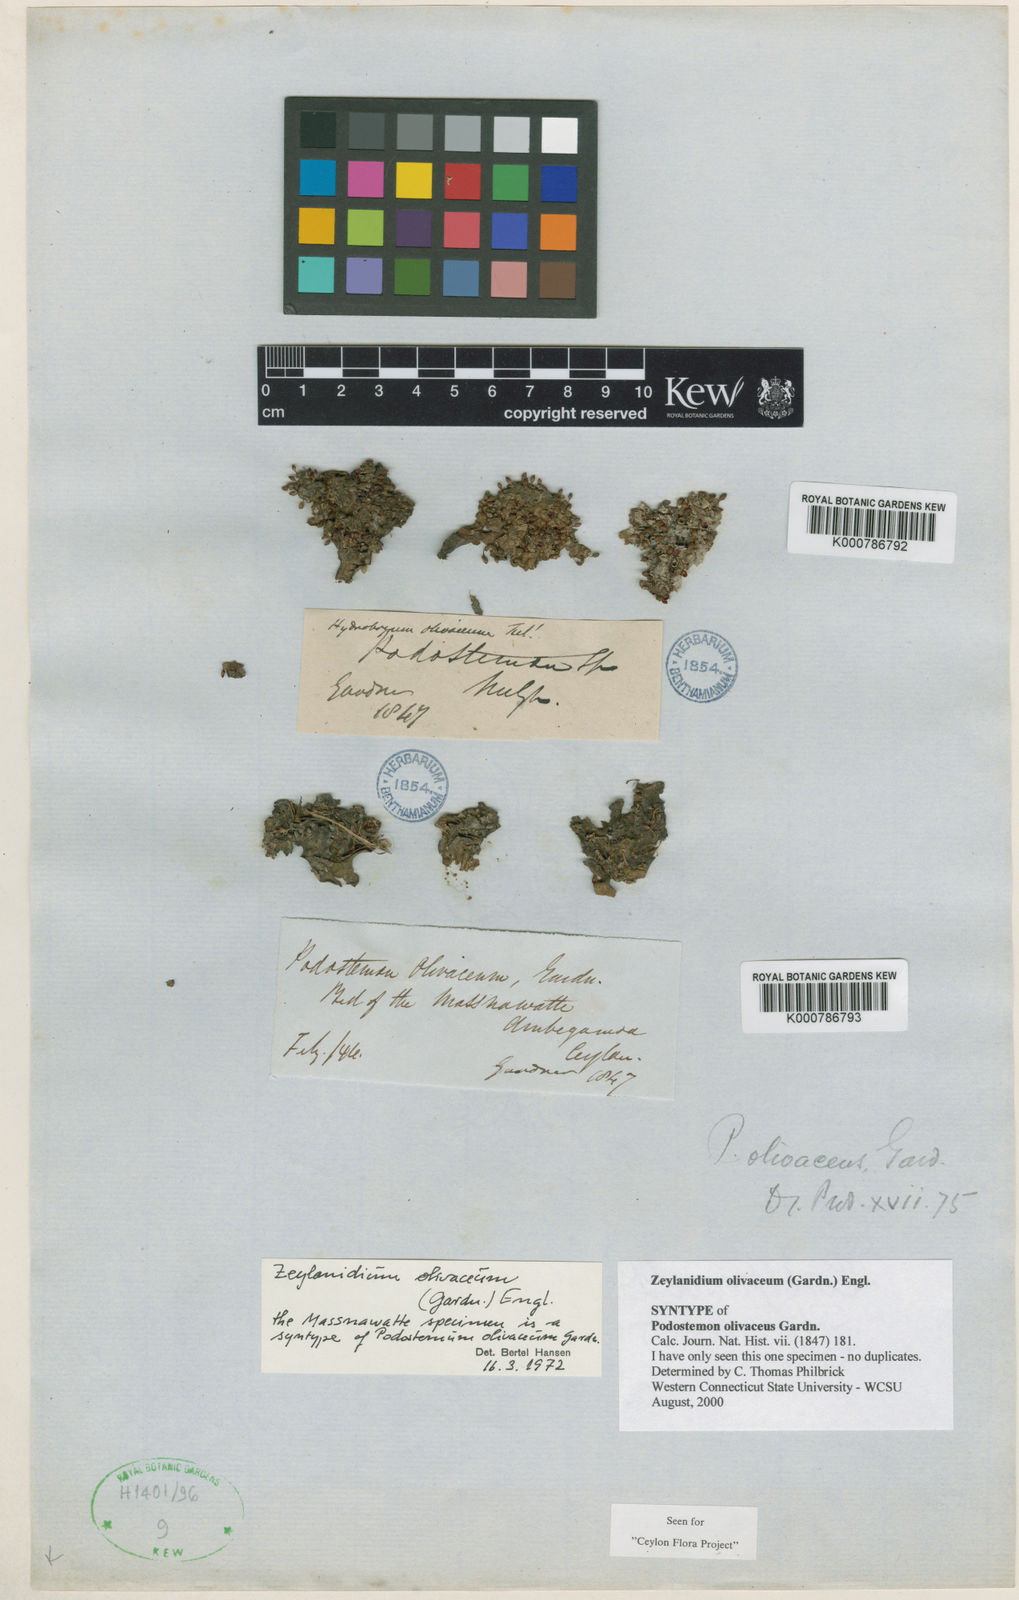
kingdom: Plantae
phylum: Tracheophyta
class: Magnoliopsida
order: Malpighiales
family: Podostemaceae
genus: Zeylanidium
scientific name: Zeylanidium olivaceum
